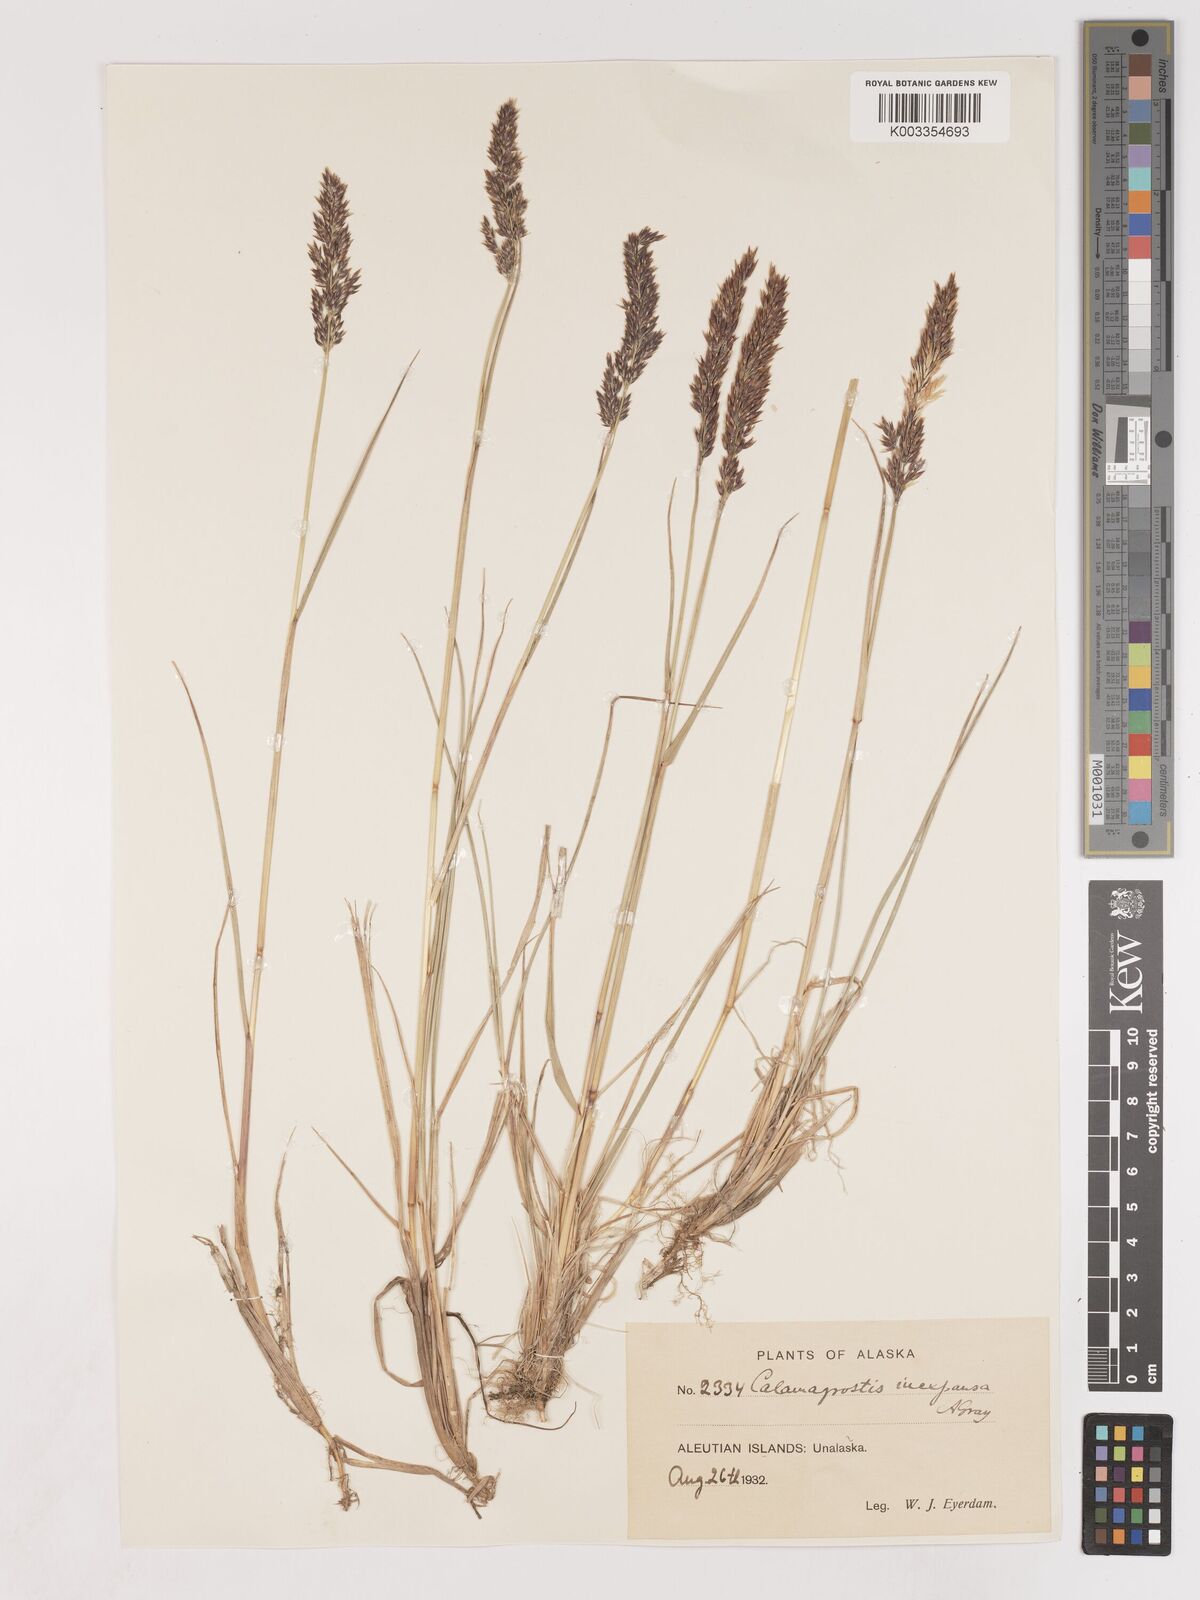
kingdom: Plantae
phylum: Tracheophyta
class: Liliopsida
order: Poales
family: Poaceae
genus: Cinnagrostis
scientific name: Cinnagrostis recta
